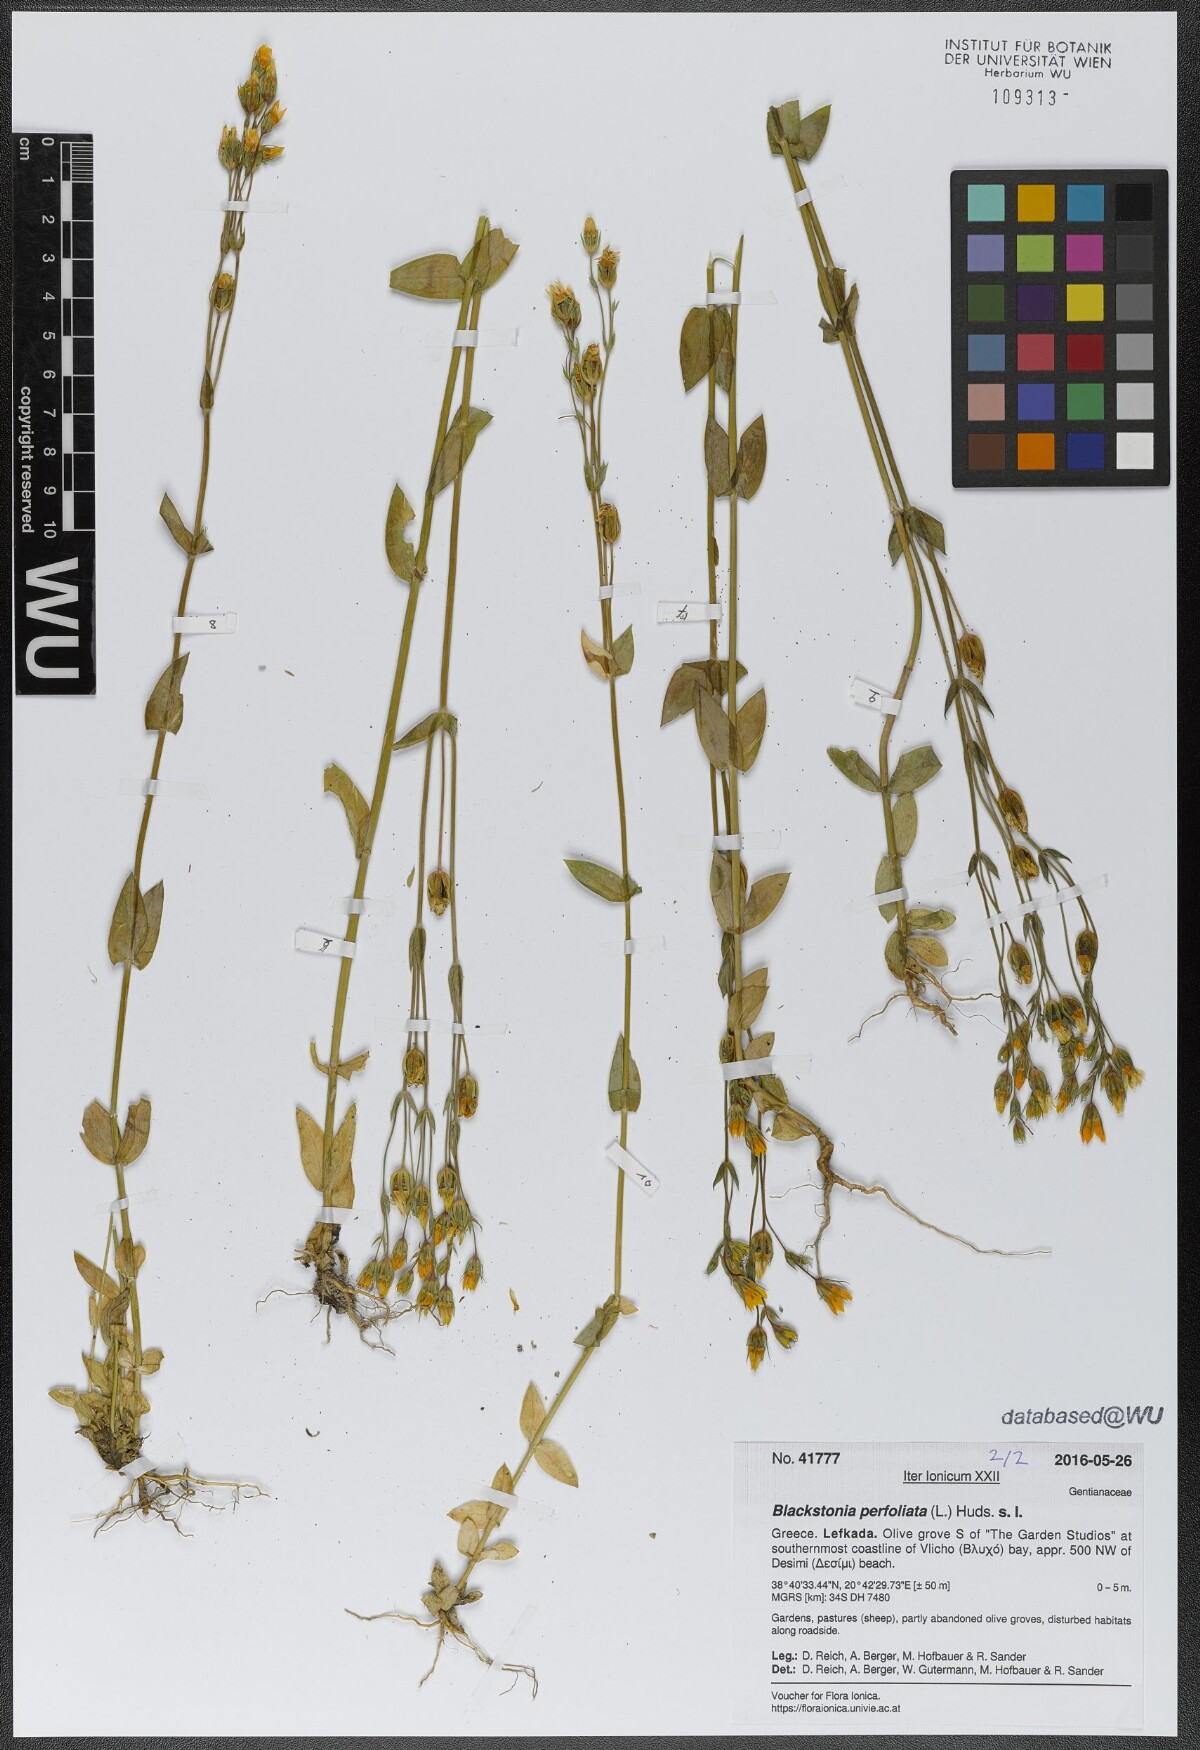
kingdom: Plantae
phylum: Tracheophyta
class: Magnoliopsida
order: Gentianales
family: Gentianaceae
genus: Blackstonia
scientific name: Blackstonia perfoliata
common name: Yellow-wort
